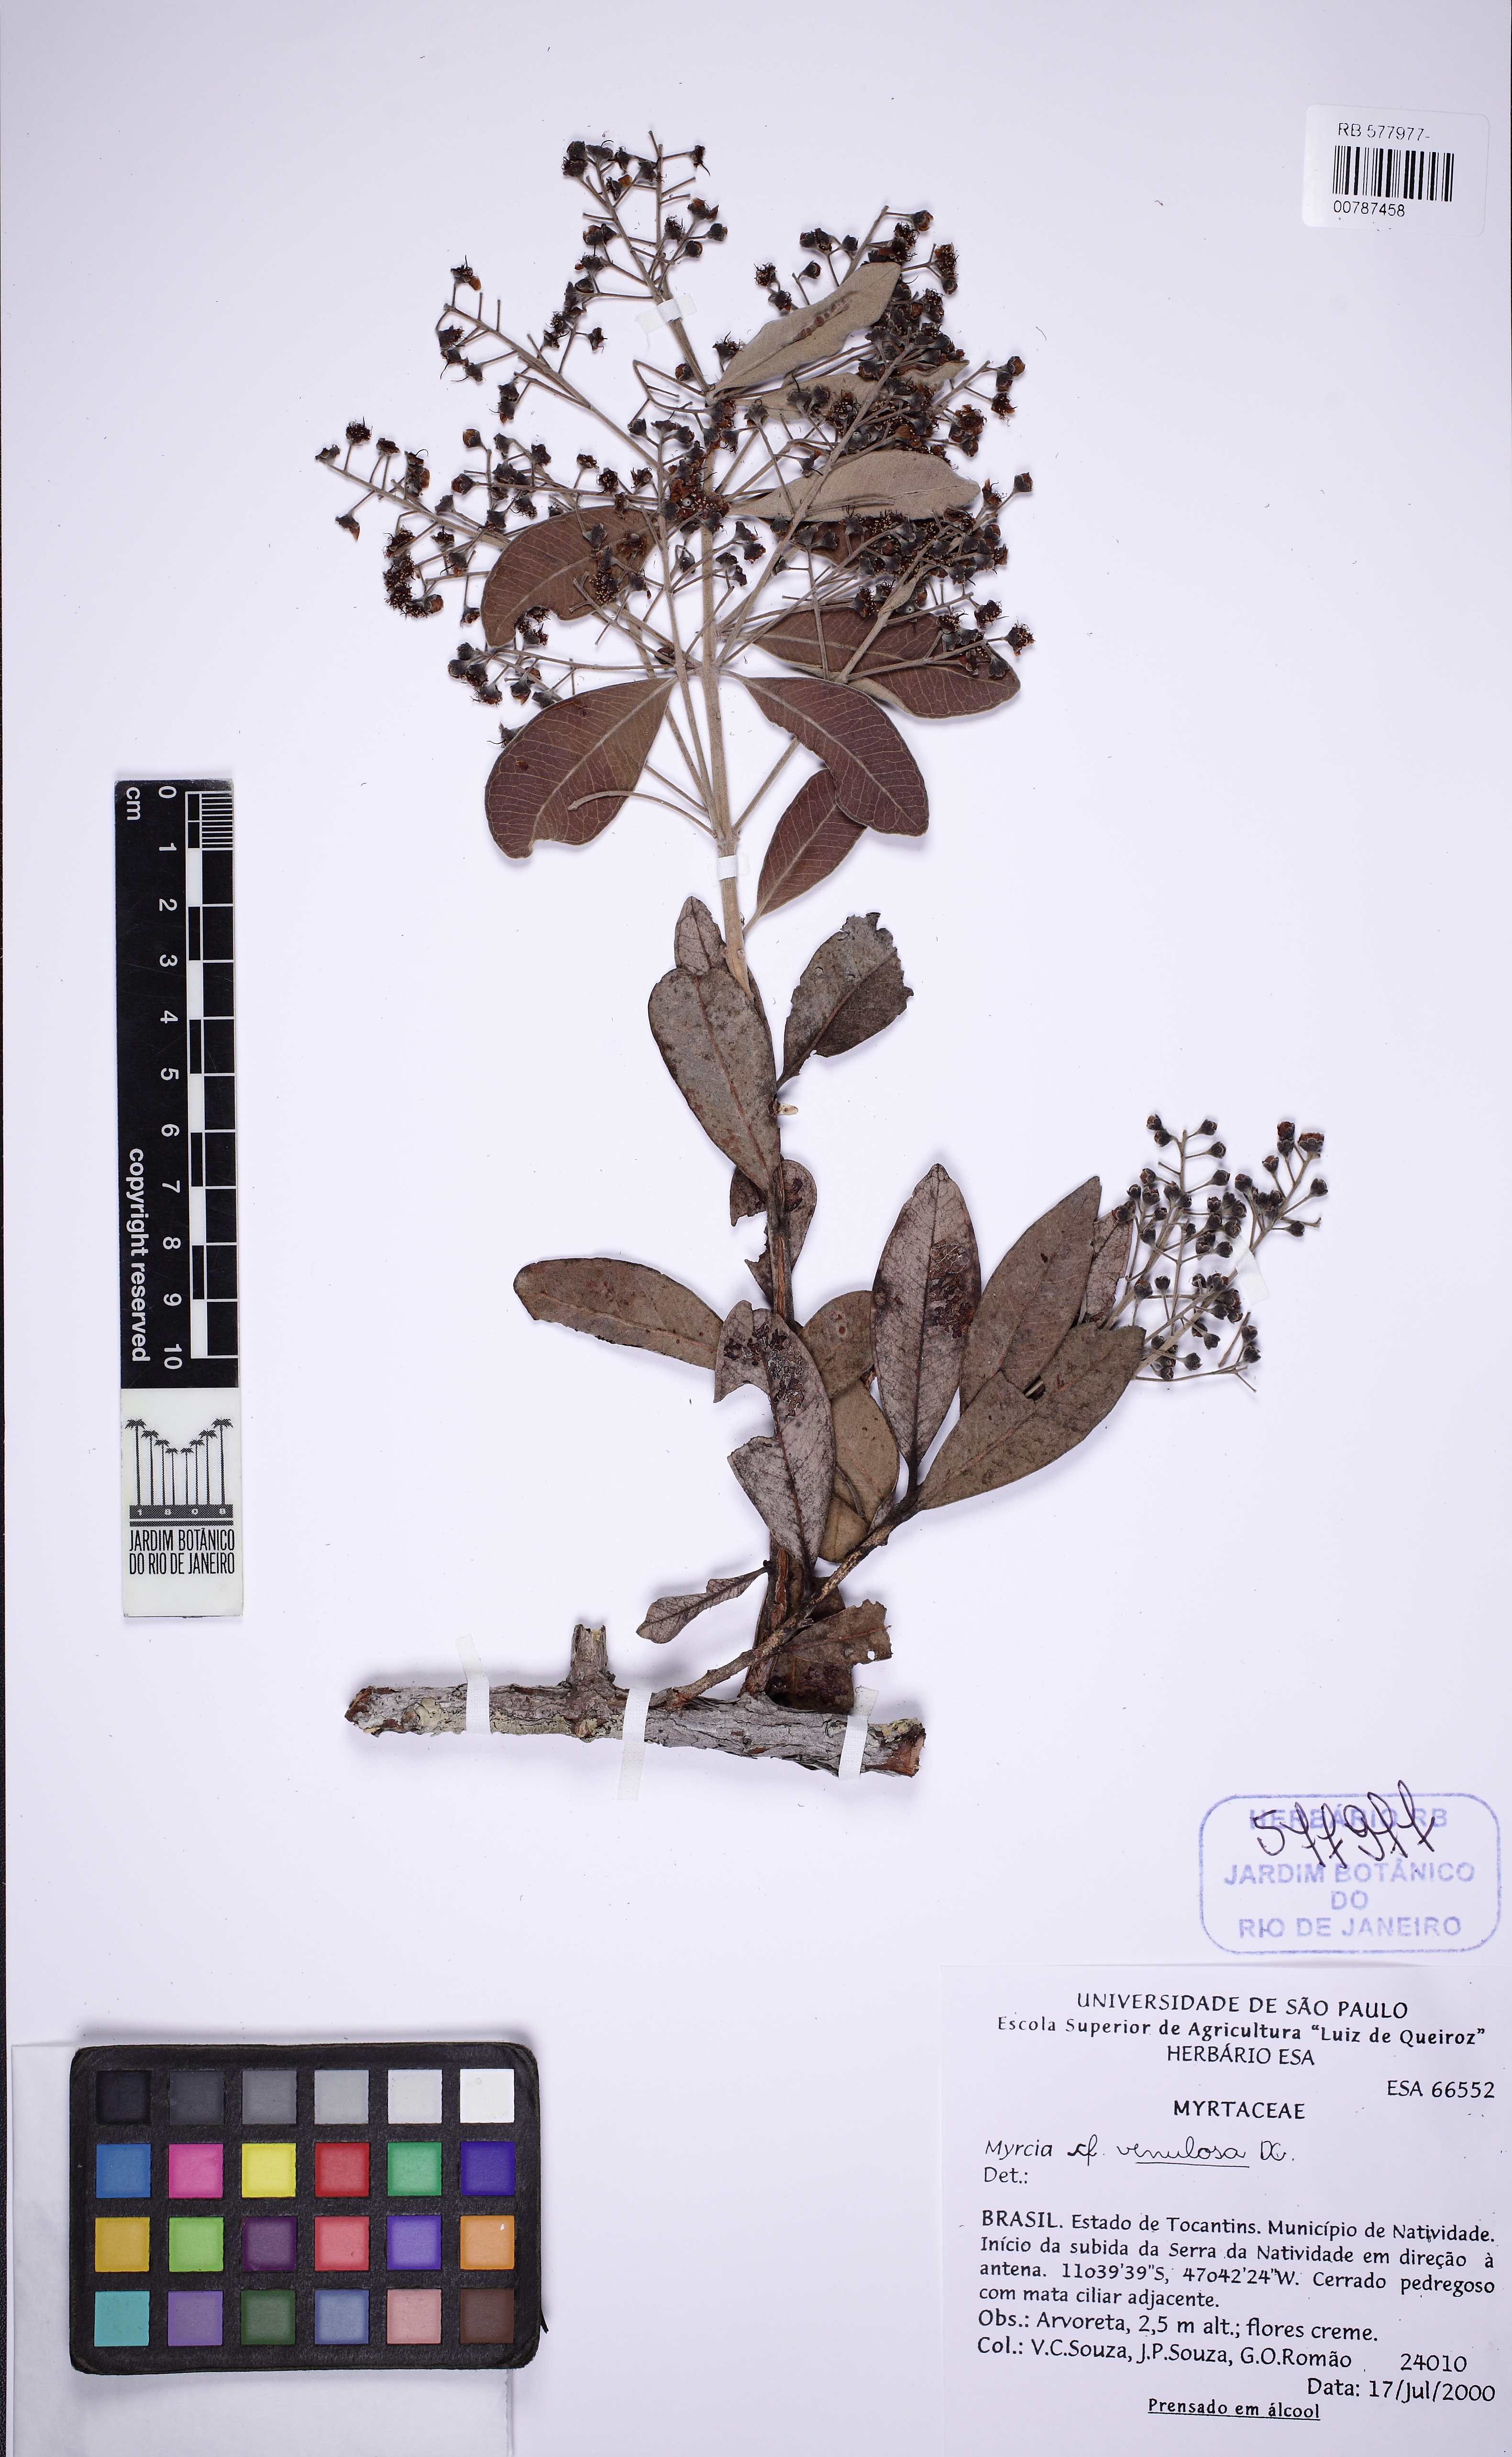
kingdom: Plantae
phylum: Tracheophyta
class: Magnoliopsida
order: Myrtales
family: Myrtaceae
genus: Myrcia
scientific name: Myrcia tortuosa
